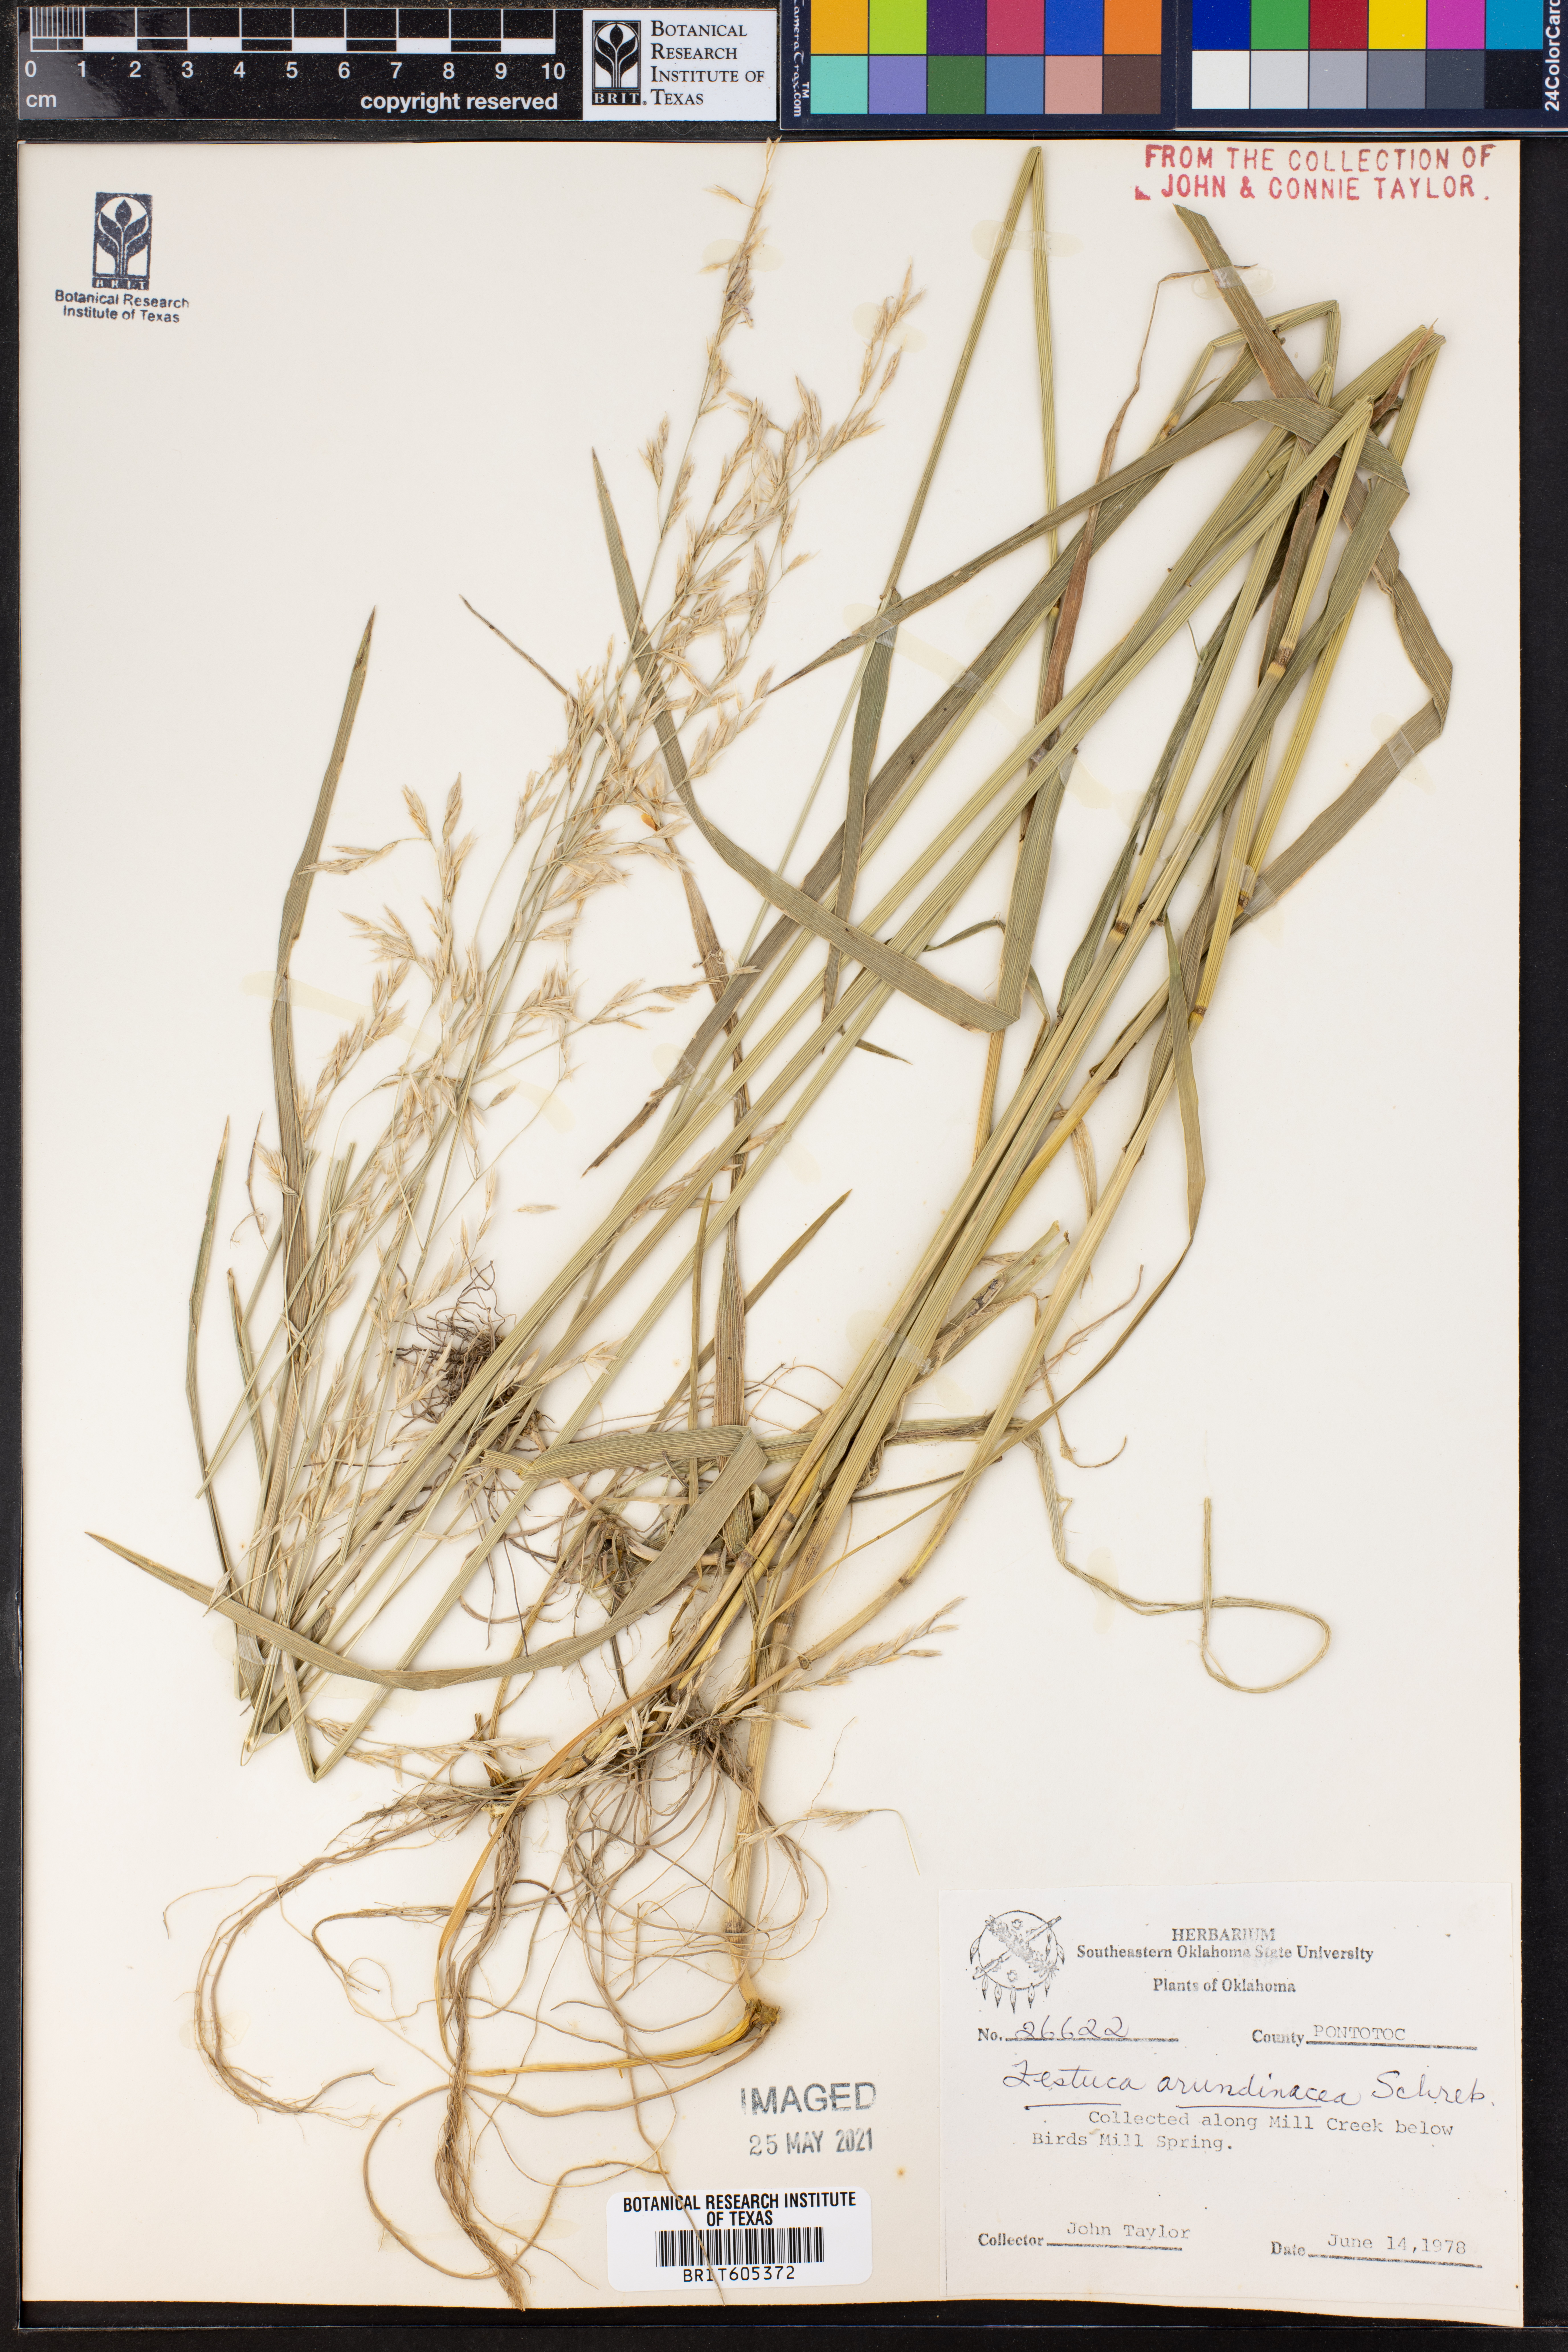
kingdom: Plantae
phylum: Tracheophyta
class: Liliopsida
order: Poales
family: Poaceae
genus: Lolium
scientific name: Lolium arundinaceum
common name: Reed fescue
